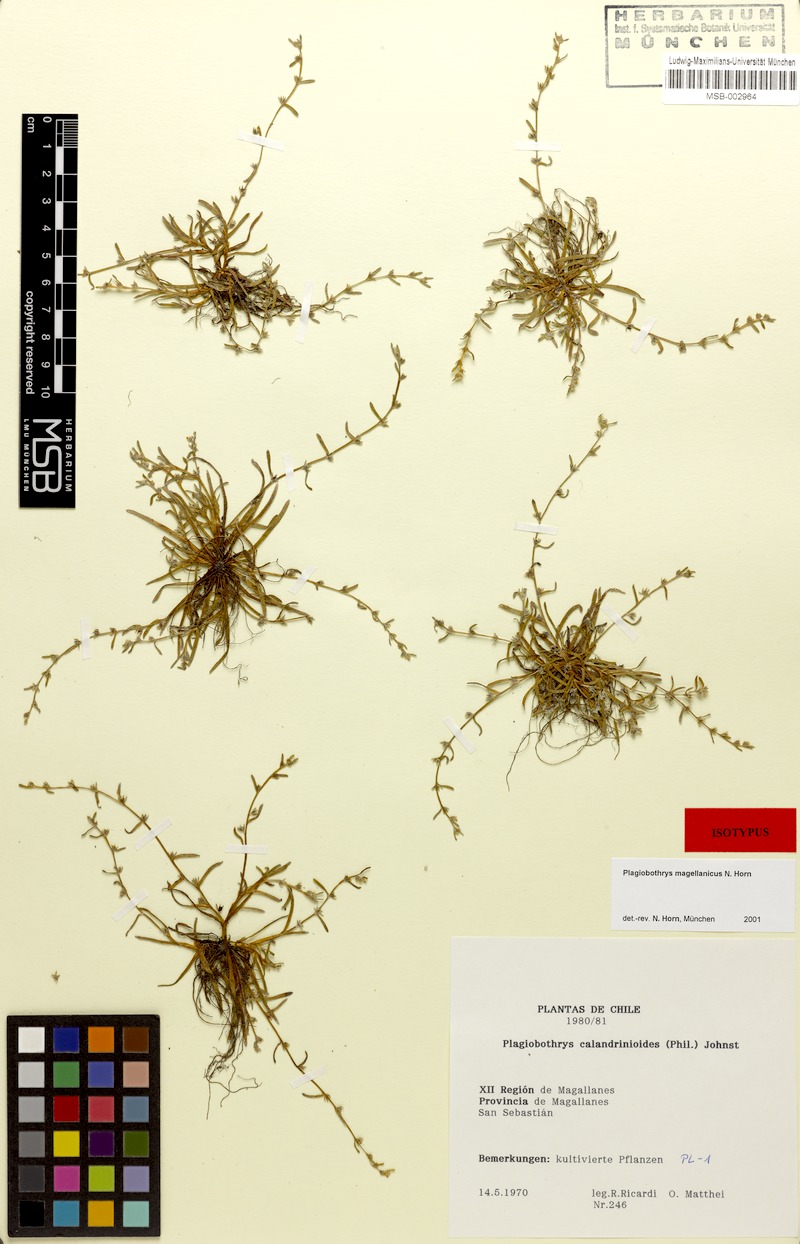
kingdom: Plantae
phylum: Tracheophyta
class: Magnoliopsida
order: Boraginales
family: Boraginaceae
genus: Plagiobothrys
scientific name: Plagiobothrys
